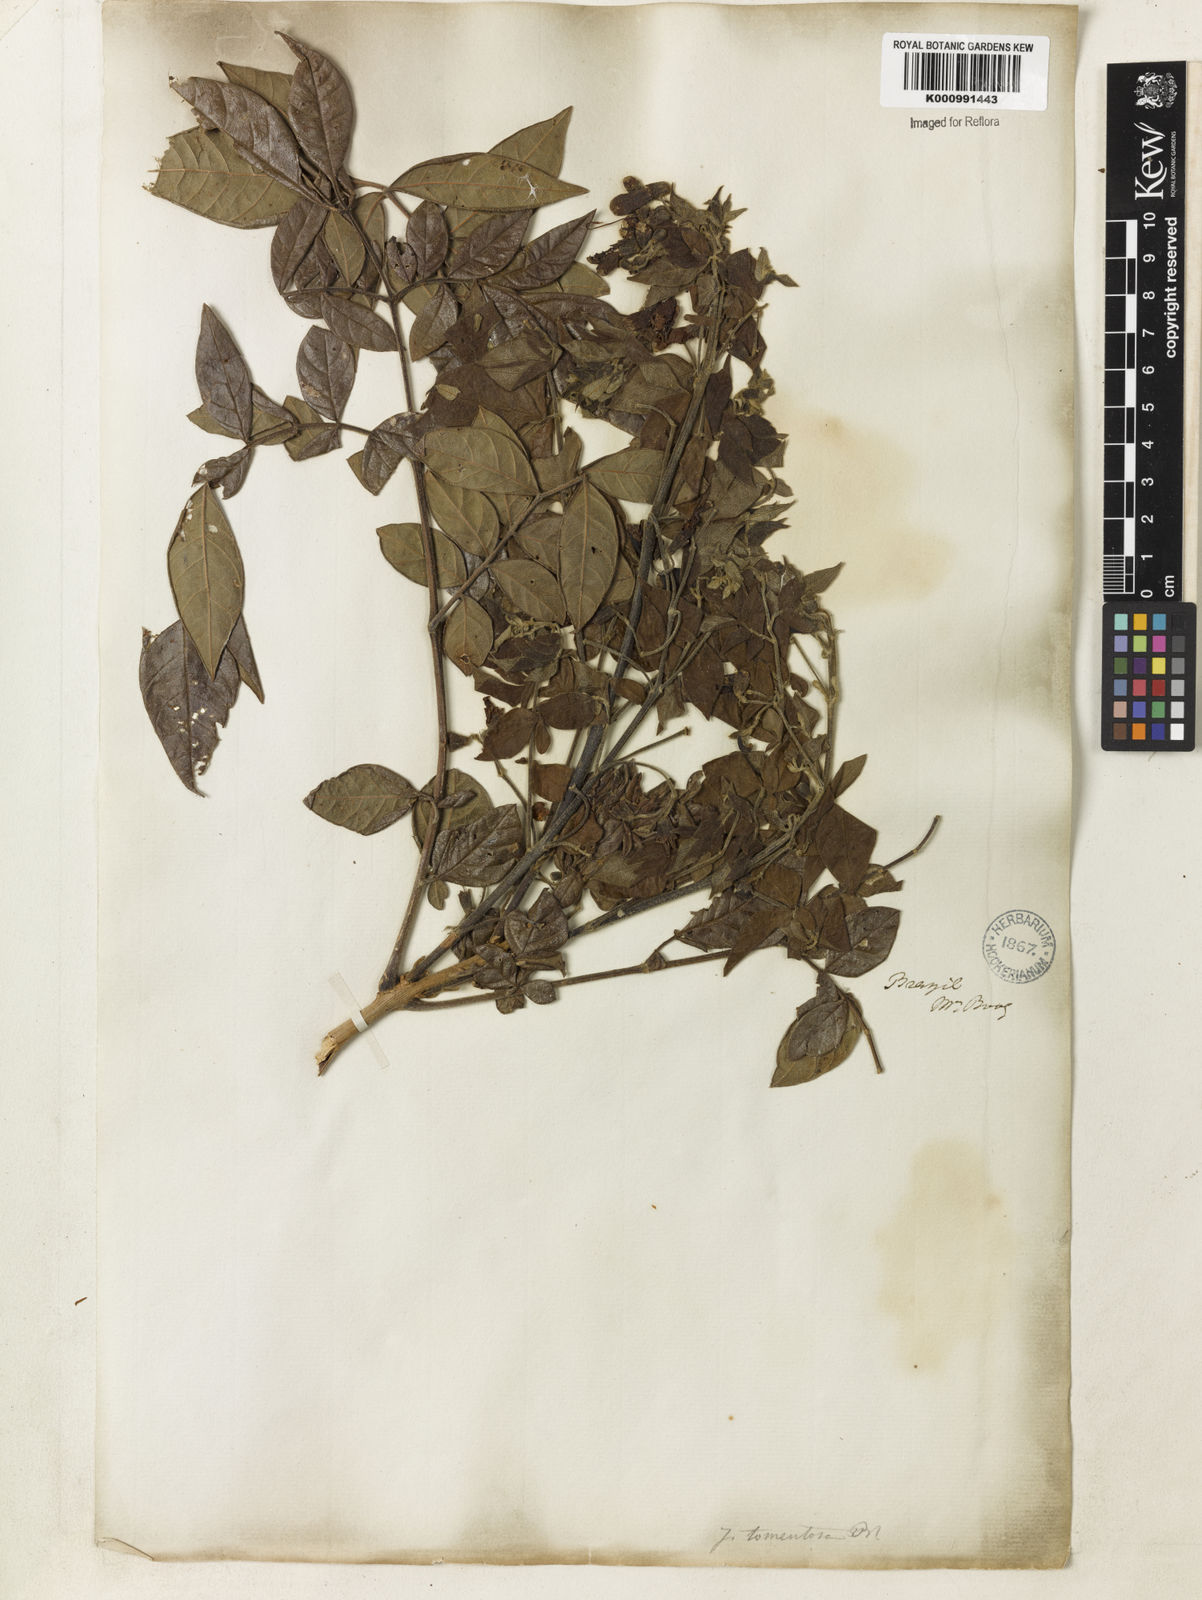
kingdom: Plantae
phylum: Tracheophyta
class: Magnoliopsida
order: Lamiales
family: Bignoniaceae
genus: Jacaranda
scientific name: Jacaranda jasminoides
